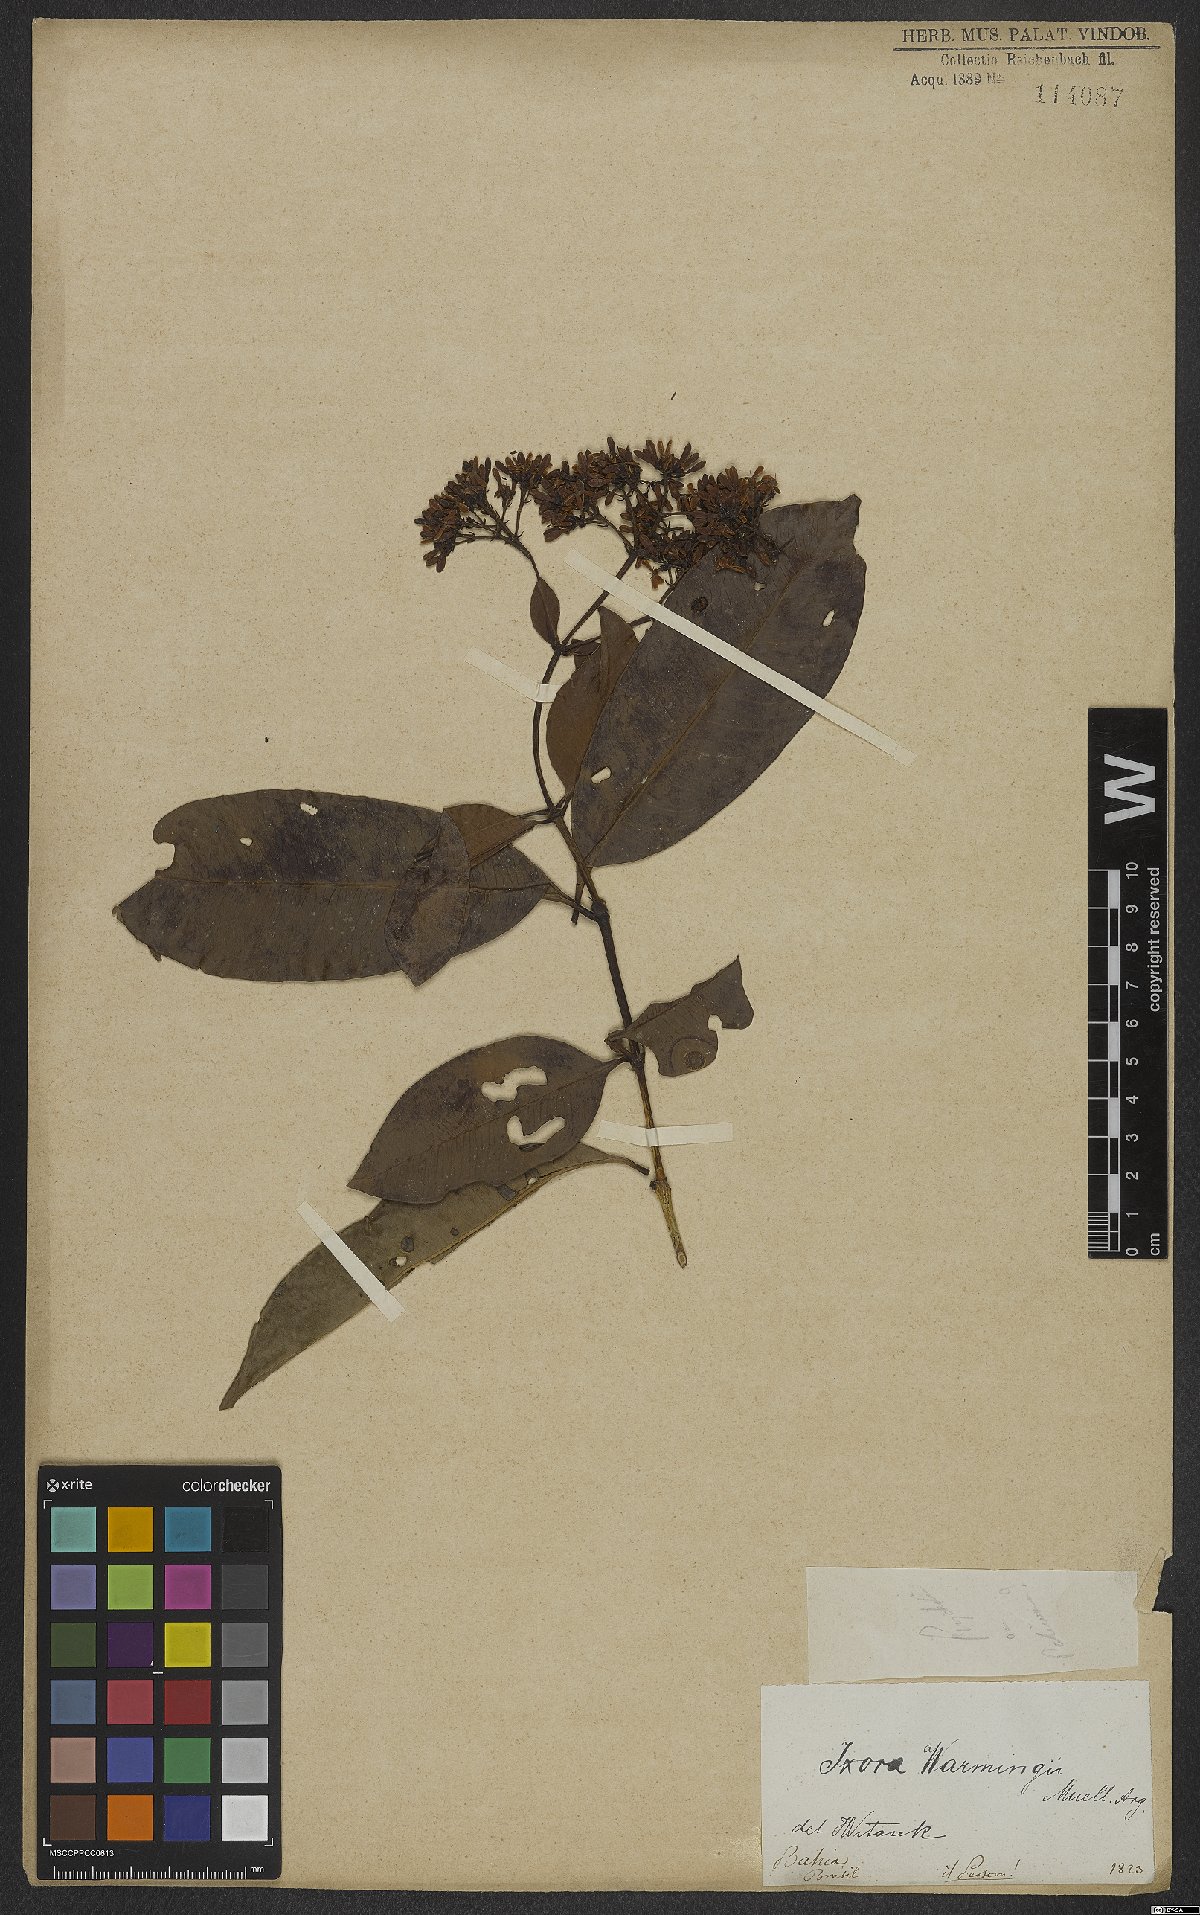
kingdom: Plantae
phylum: Tracheophyta
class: Magnoliopsida
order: Gentianales
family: Rubiaceae
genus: Ixora
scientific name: Ixora brevifolia
